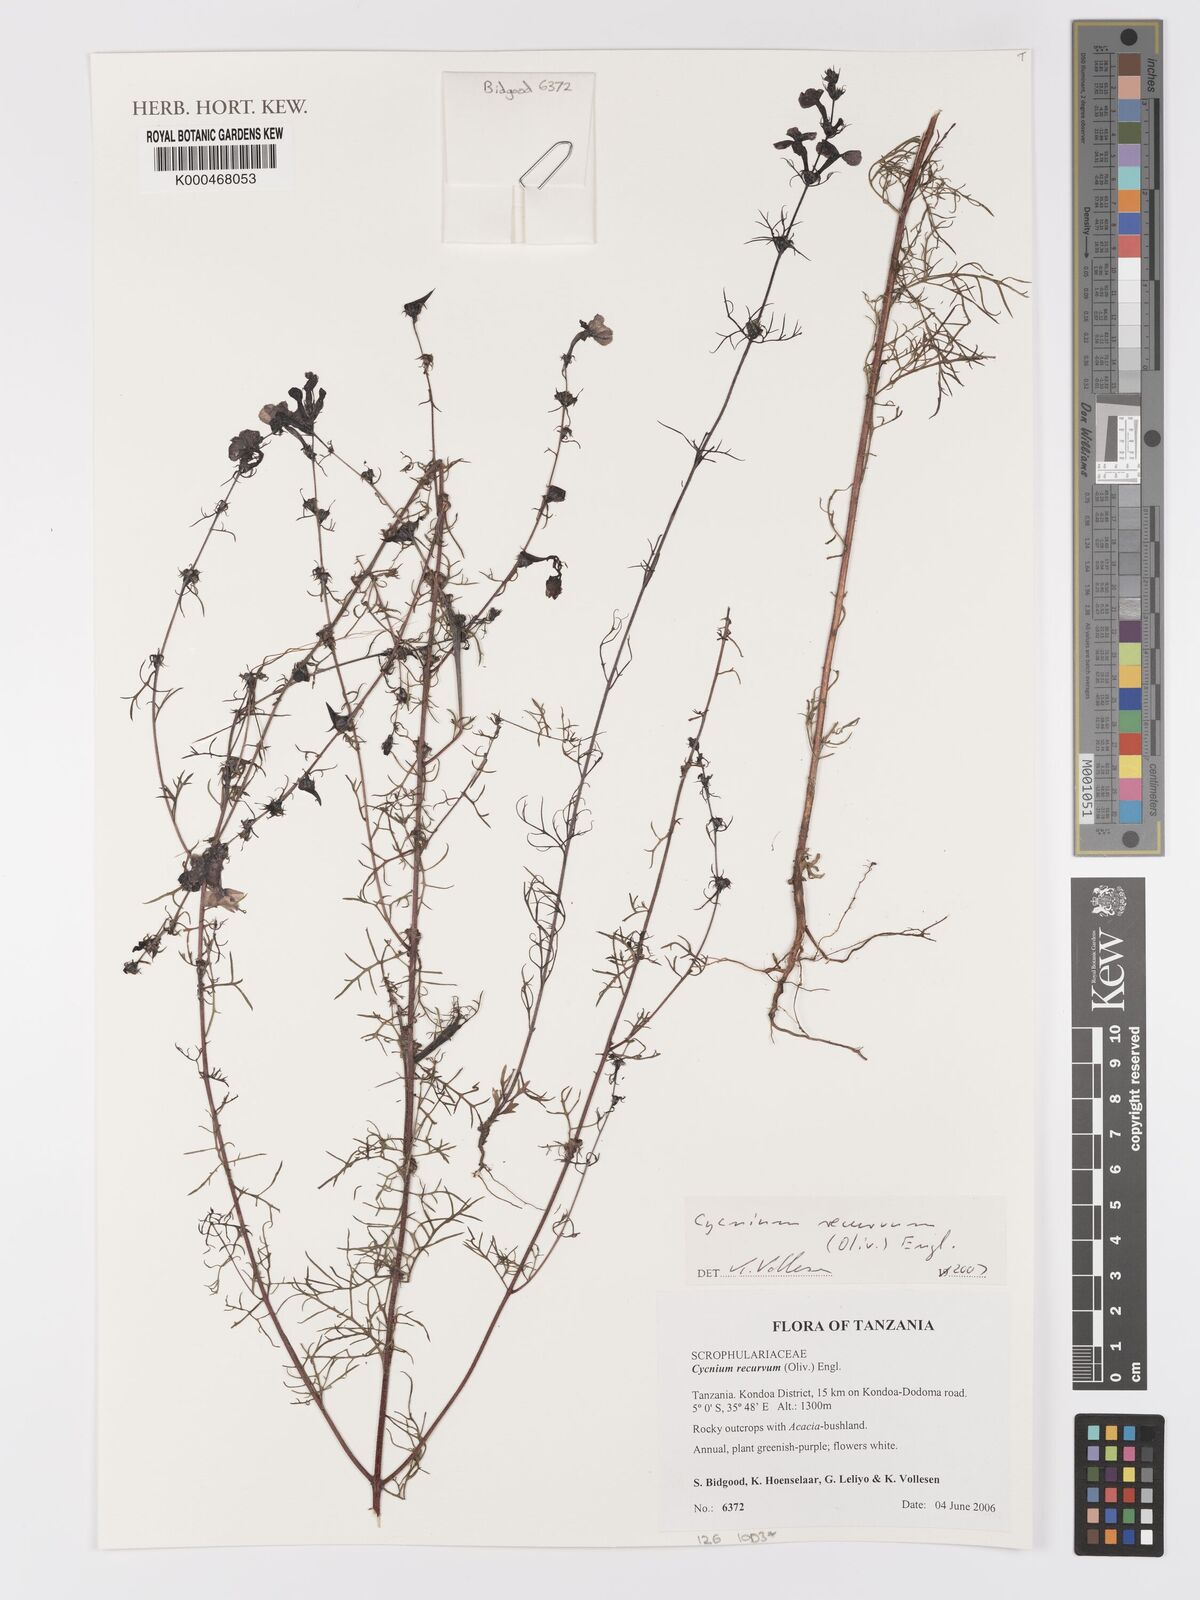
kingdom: Plantae
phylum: Tracheophyta
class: Magnoliopsida
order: Lamiales
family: Orobanchaceae
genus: Cycnium
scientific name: Cycnium recurvum
